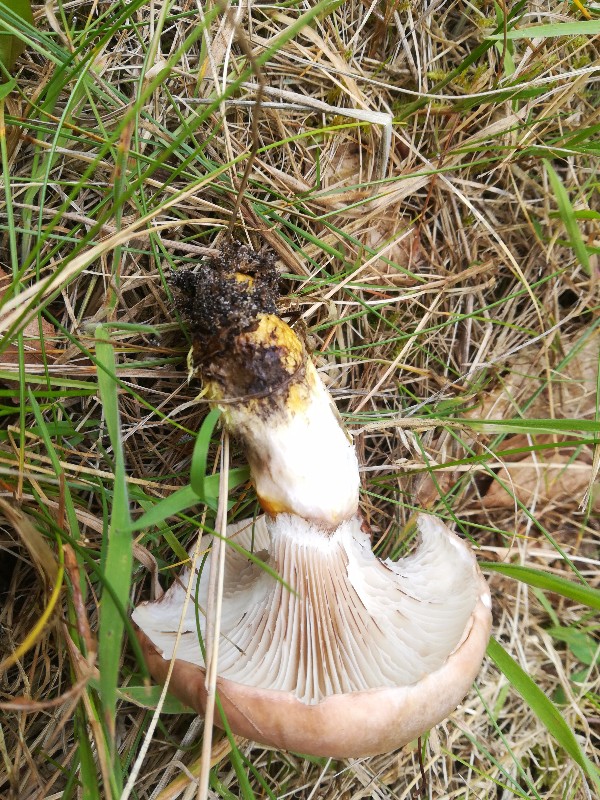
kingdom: Fungi
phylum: Basidiomycota
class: Agaricomycetes
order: Boletales
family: Gomphidiaceae
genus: Gomphidius
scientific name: Gomphidius glutinosus
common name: grå slimslør
